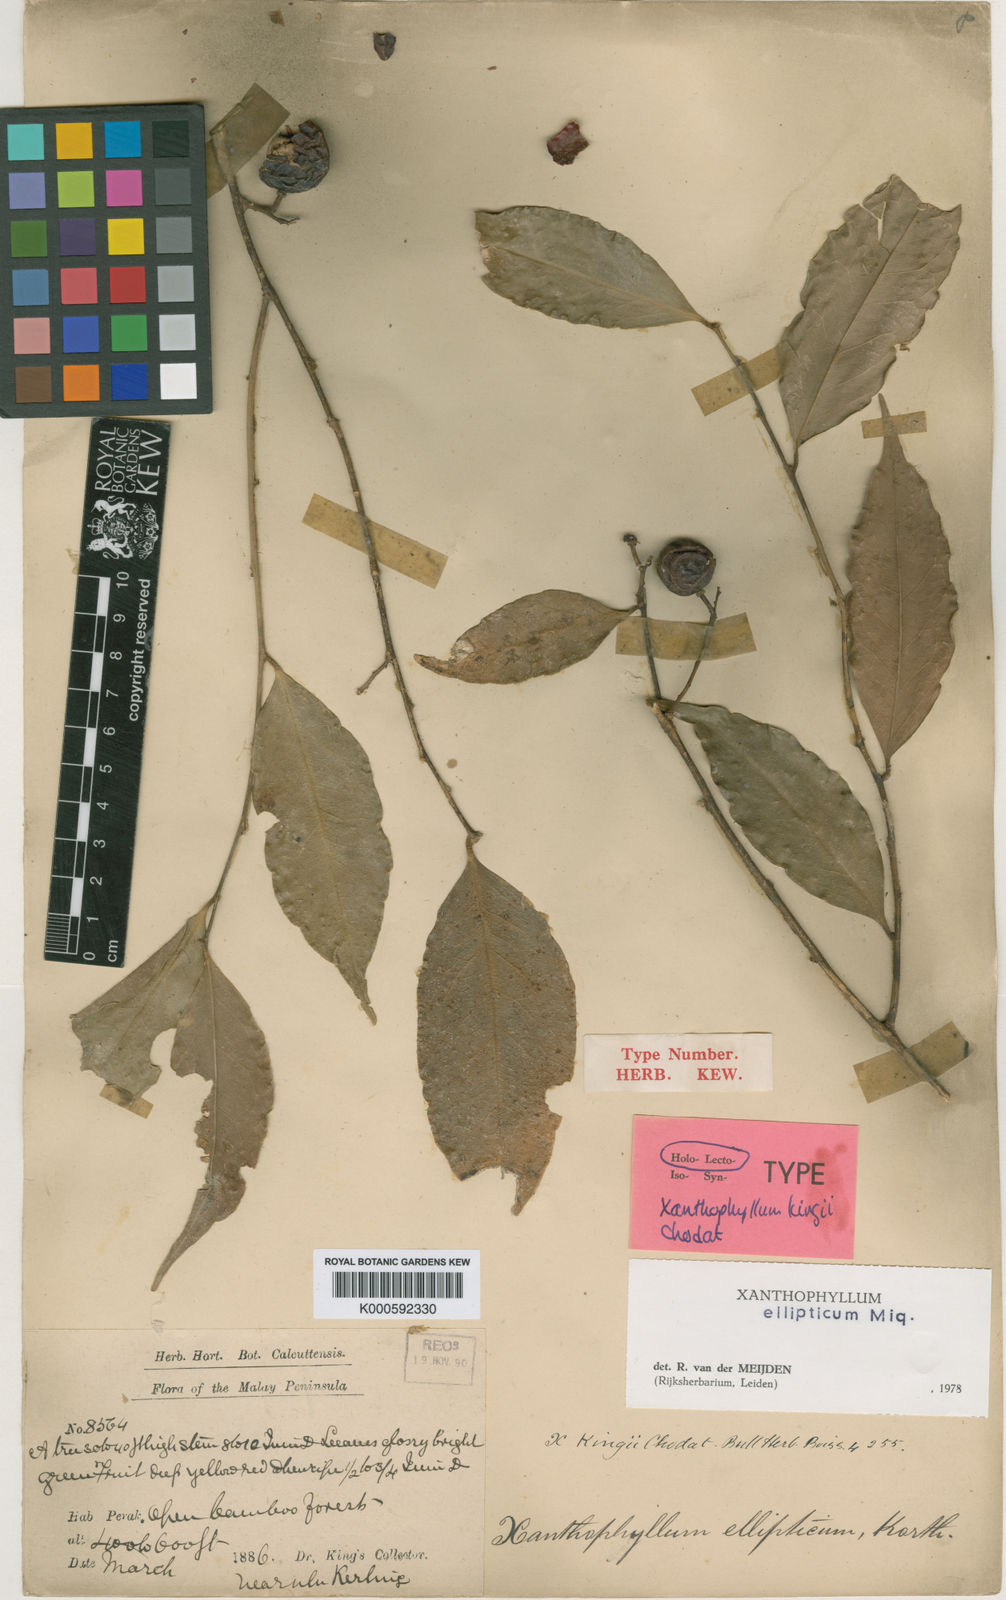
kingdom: Plantae
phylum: Tracheophyta
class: Magnoliopsida
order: Fabales
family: Polygalaceae
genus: Xanthophyllum
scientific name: Xanthophyllum ellipticum
